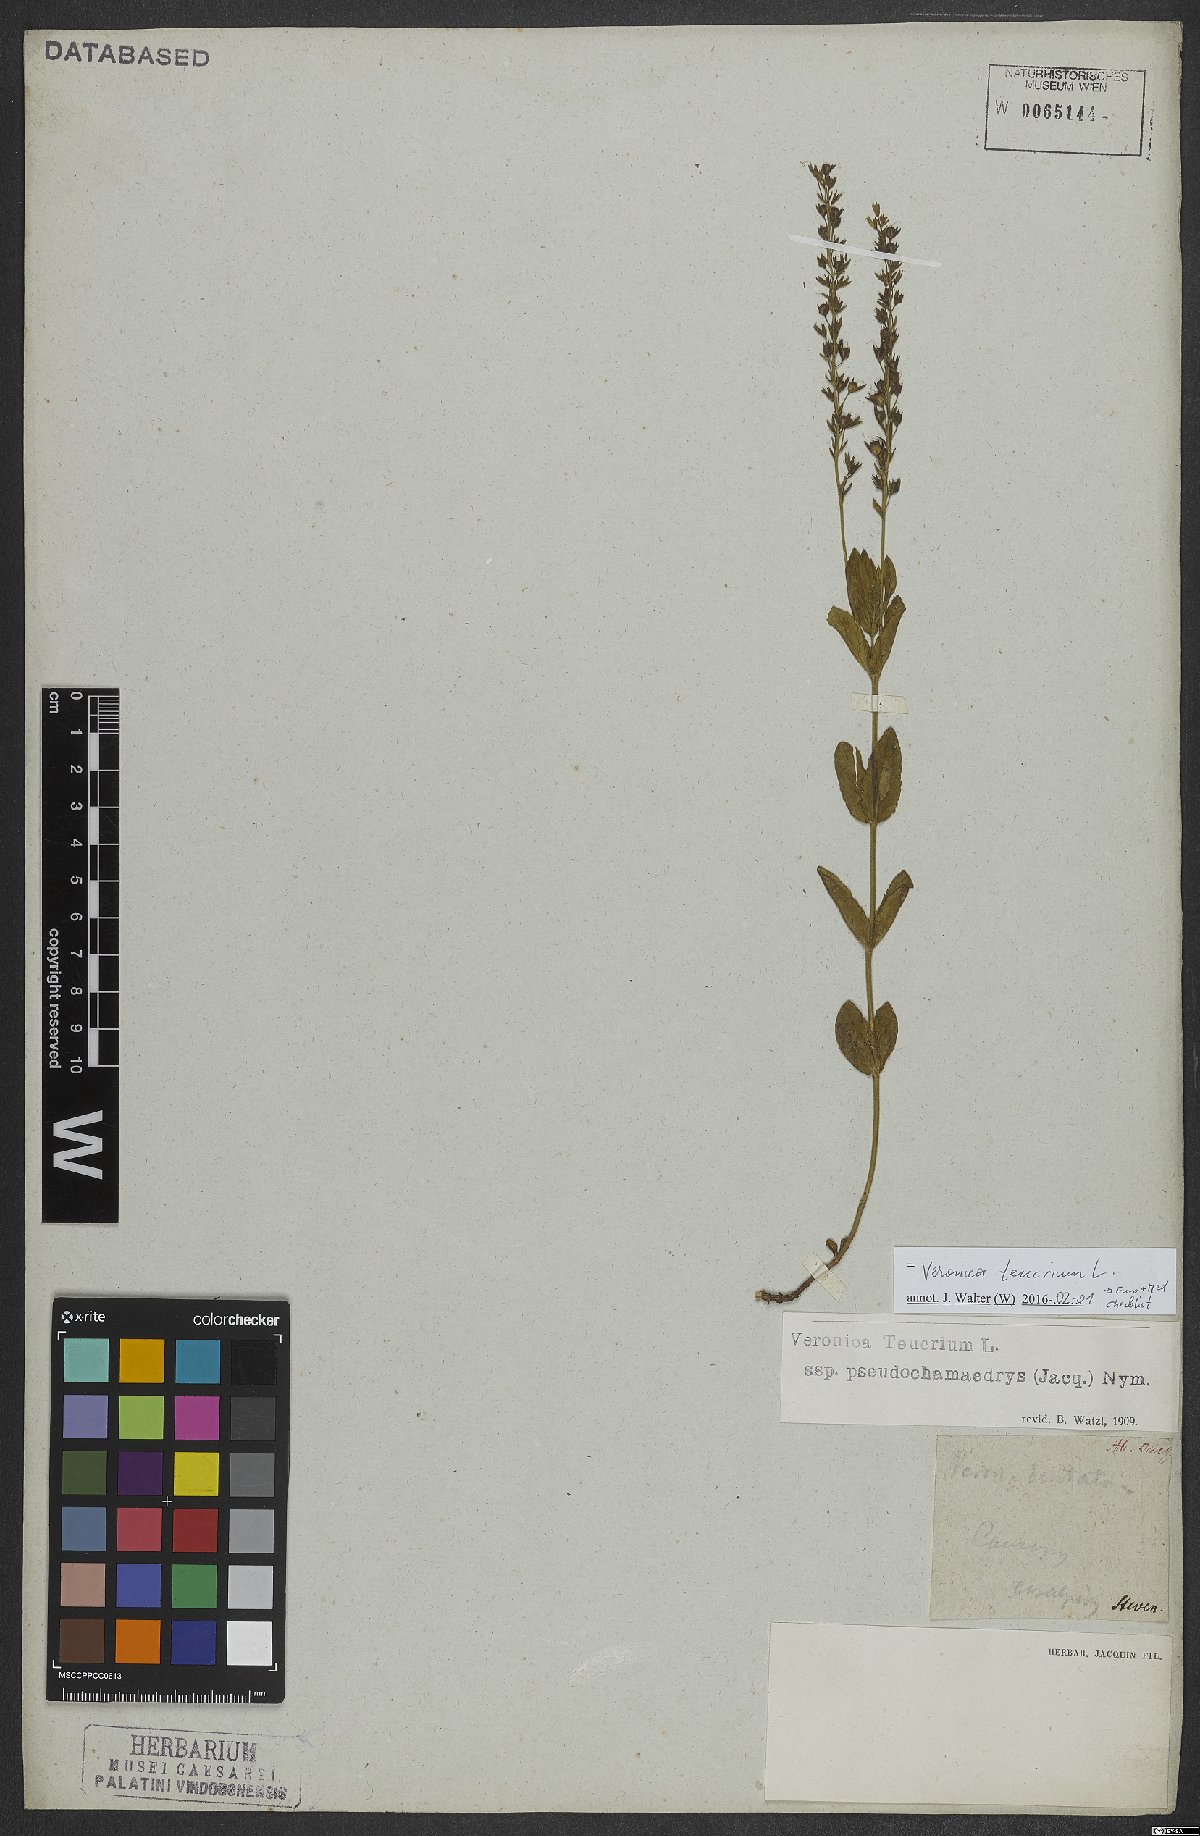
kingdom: Plantae
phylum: Tracheophyta
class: Magnoliopsida
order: Lamiales
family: Plantaginaceae
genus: Veronica
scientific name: Veronica teucrium
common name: Large speedwell
